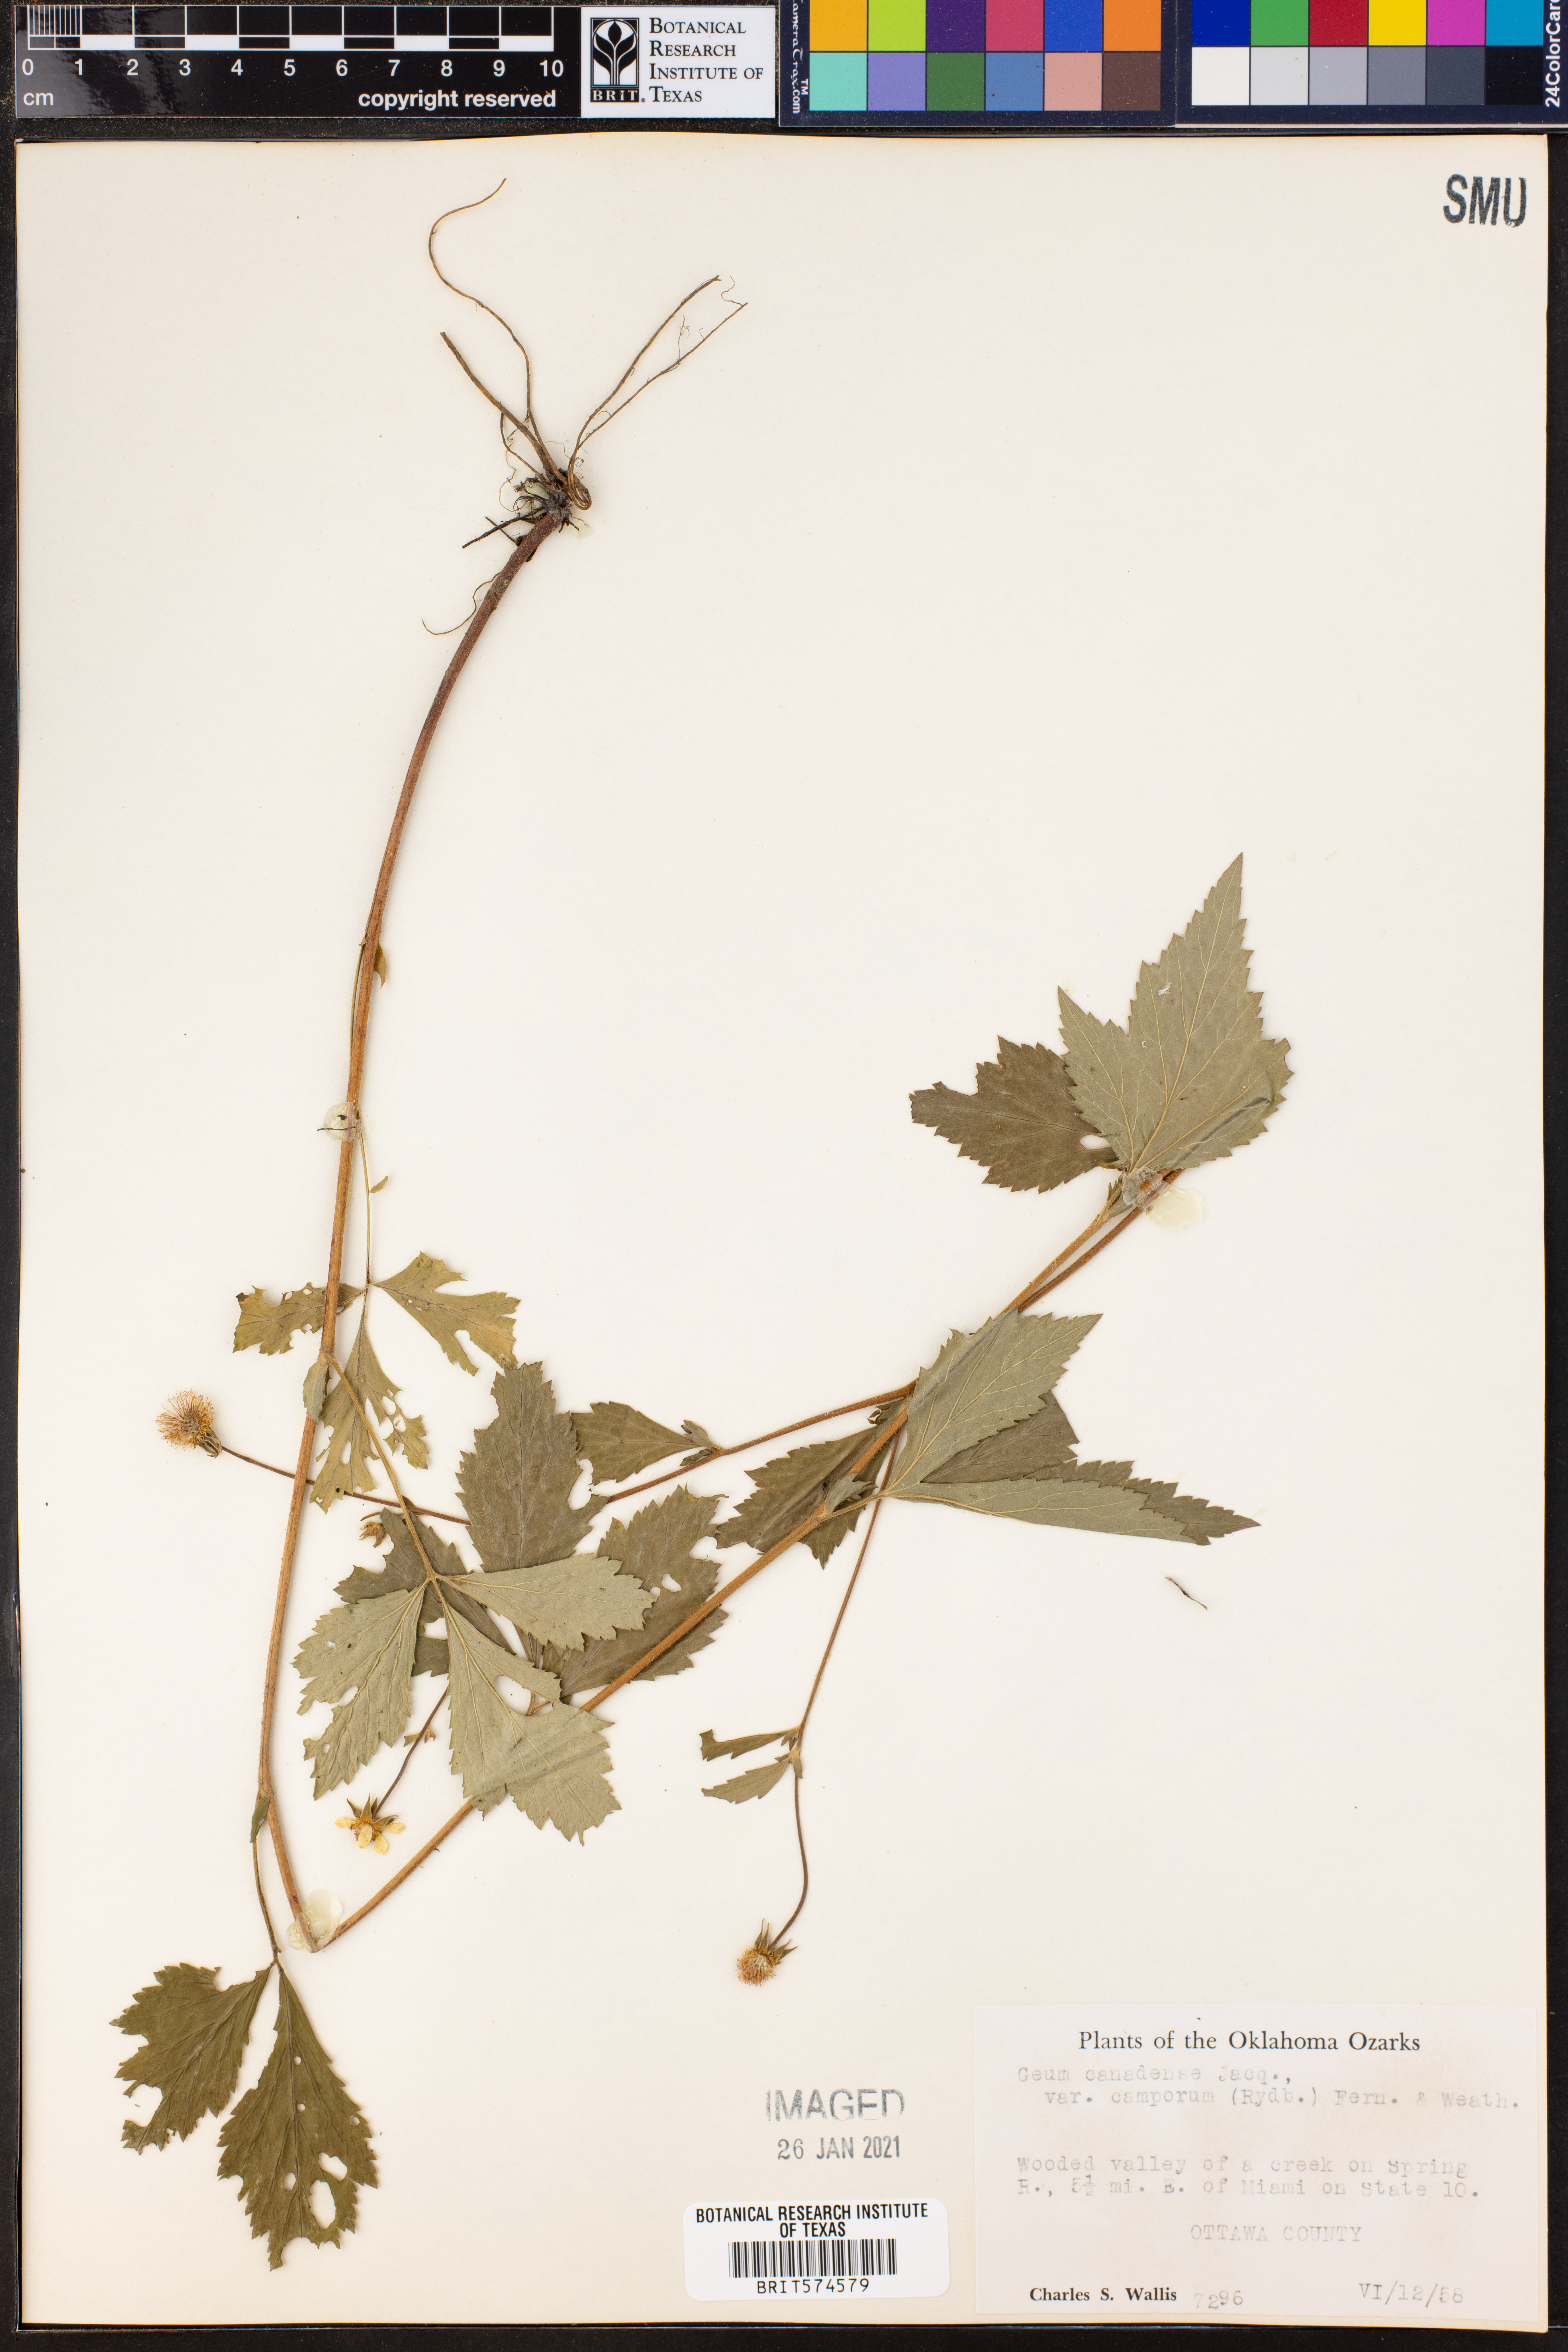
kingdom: Plantae
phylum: Tracheophyta
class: Magnoliopsida
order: Rosales
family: Rosaceae
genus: Geum
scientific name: Geum canadense
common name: White avens
